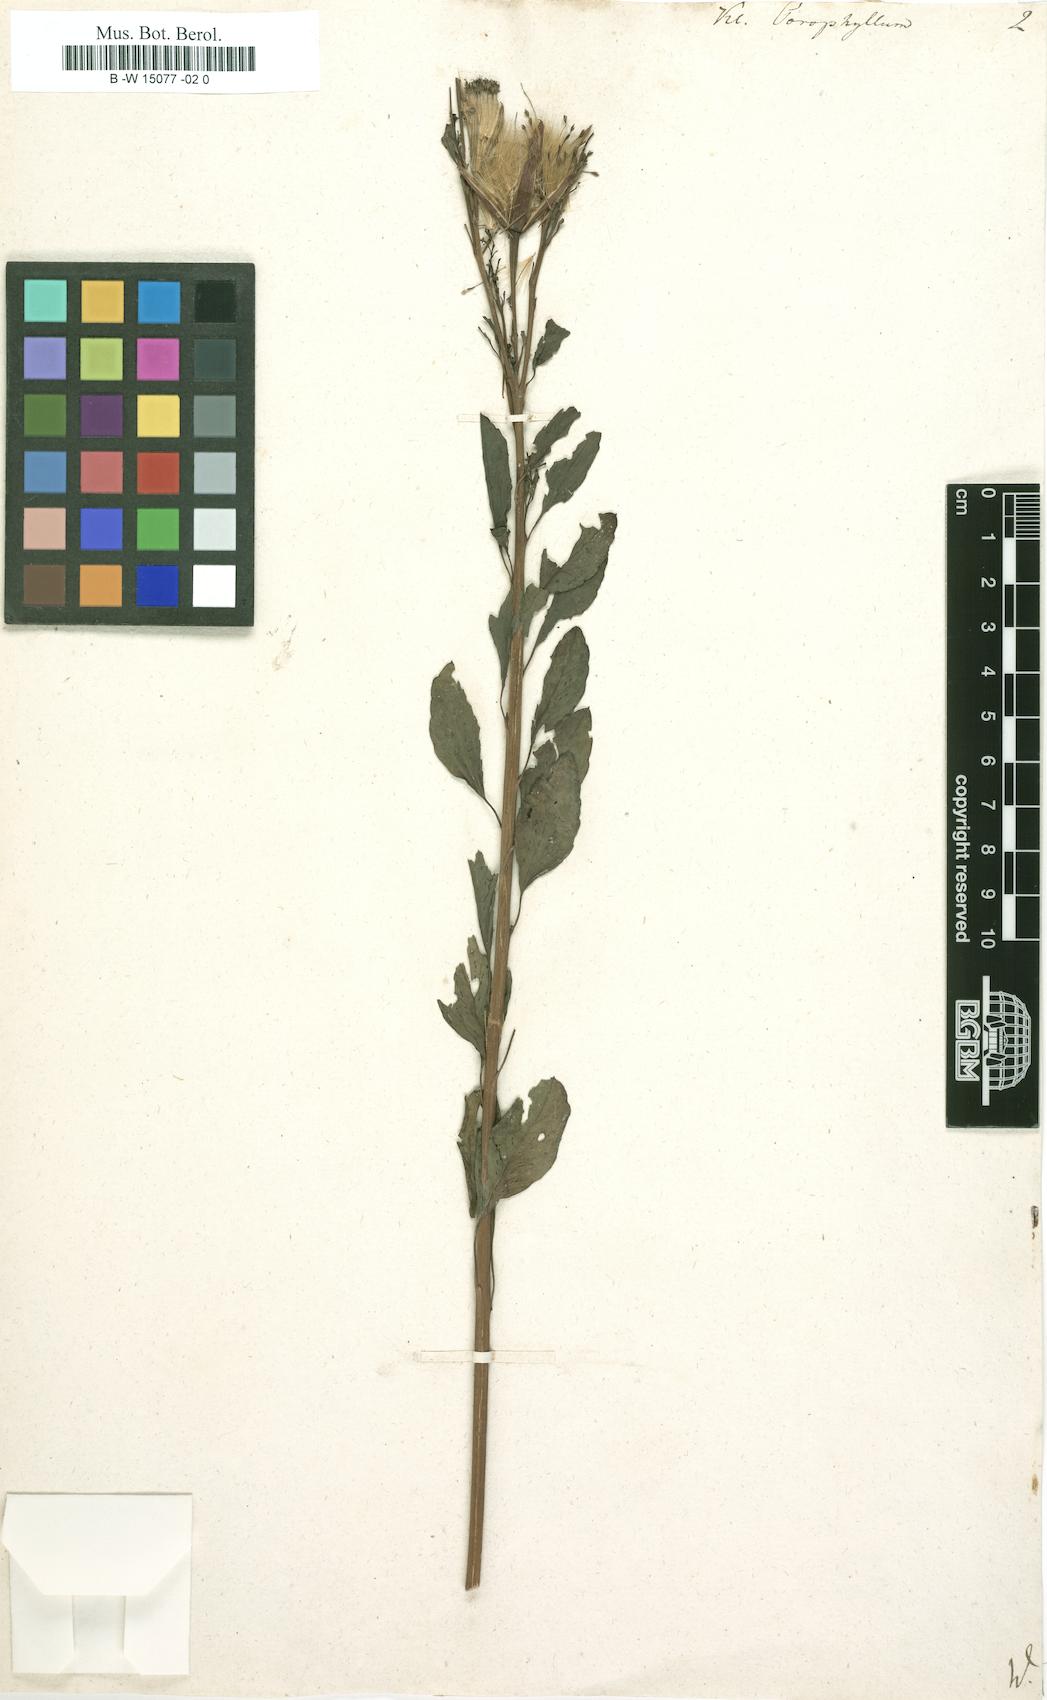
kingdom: Plantae
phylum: Tracheophyta
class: Magnoliopsida
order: Asterales
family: Asteraceae
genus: Porophyllum
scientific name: Porophyllum ruderale
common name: Yerba porosa
